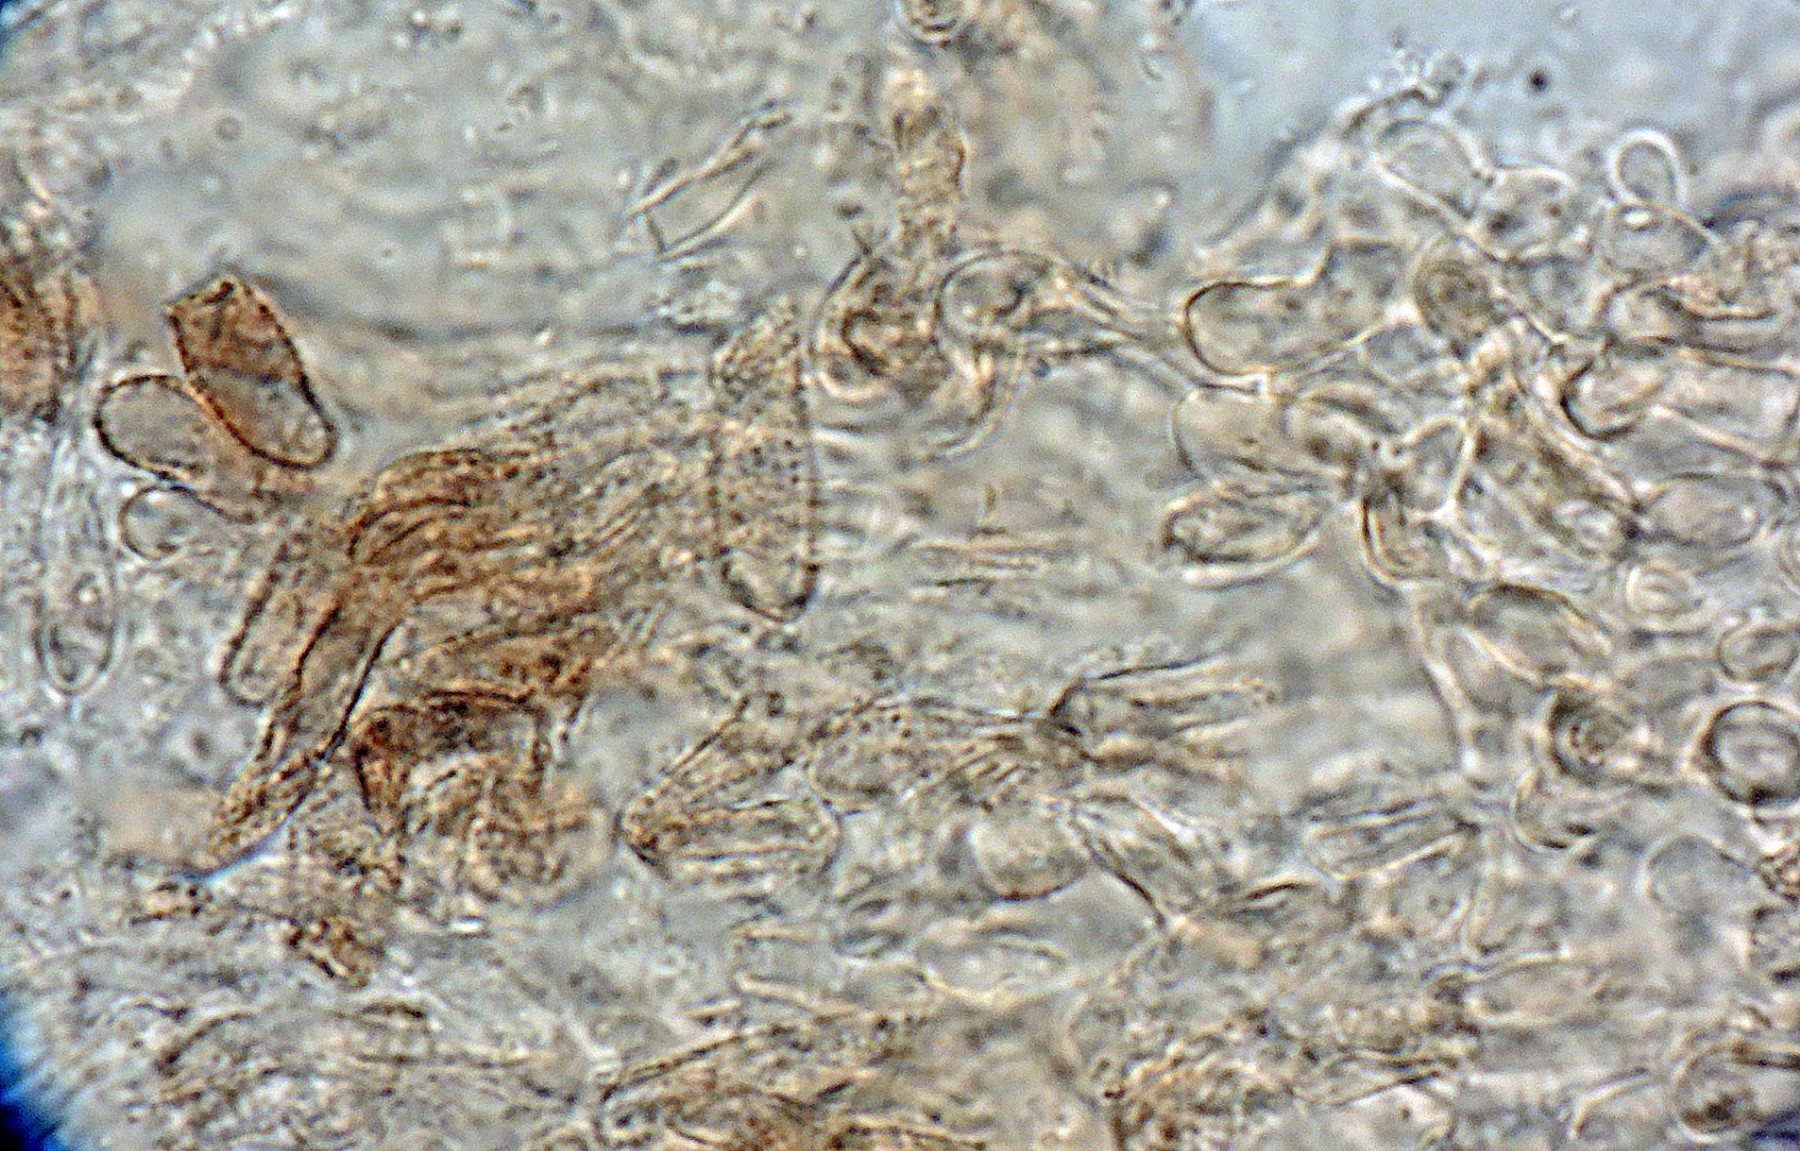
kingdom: Fungi
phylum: Ascomycota
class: Leotiomycetes
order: Helotiales
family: Hyphodiscaceae
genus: Fuscolachnum
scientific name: Fuscolachnum misellum
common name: brombærblad-sirskive
